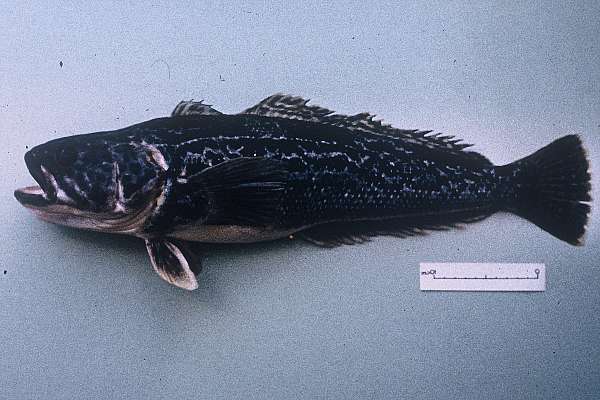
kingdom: Animalia
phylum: Chordata
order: Perciformes
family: Nototheniidae
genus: Notothenia
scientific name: Notothenia rossii
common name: Marbled notothen
